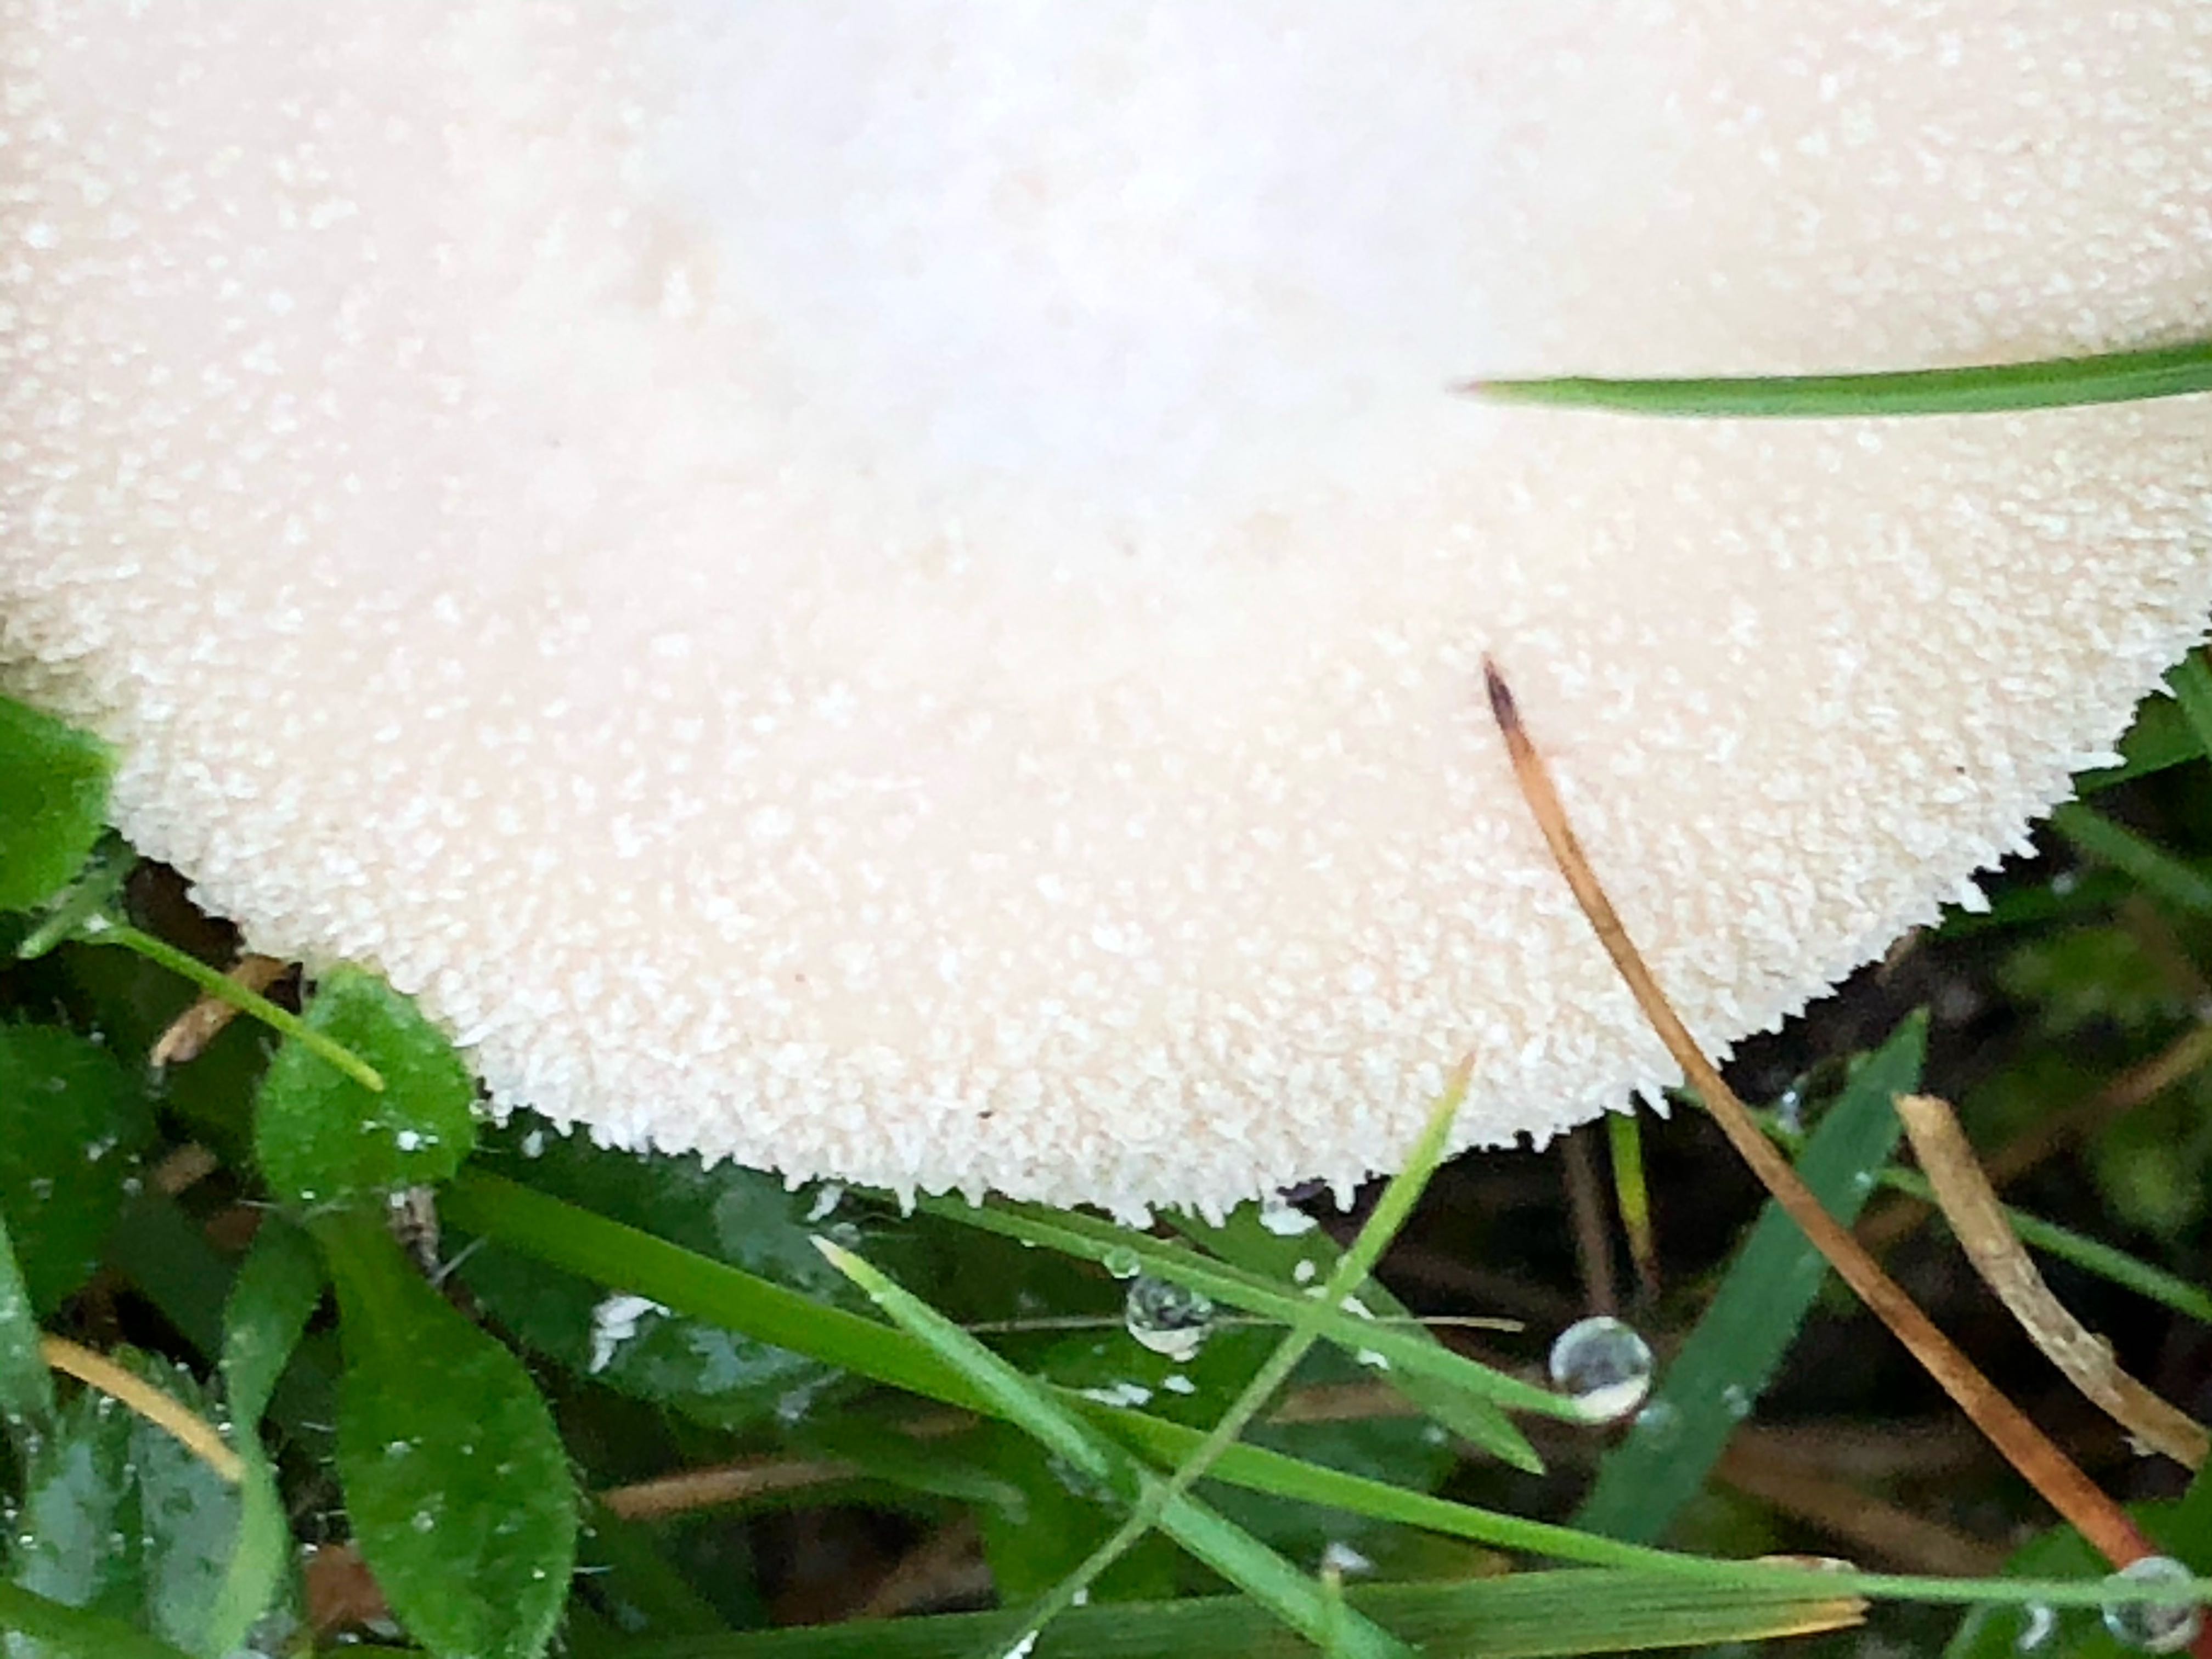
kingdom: Fungi
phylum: Basidiomycota
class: Agaricomycetes
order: Agaricales
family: Agaricaceae
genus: Lycoperdon
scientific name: Lycoperdon
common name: støvbold
